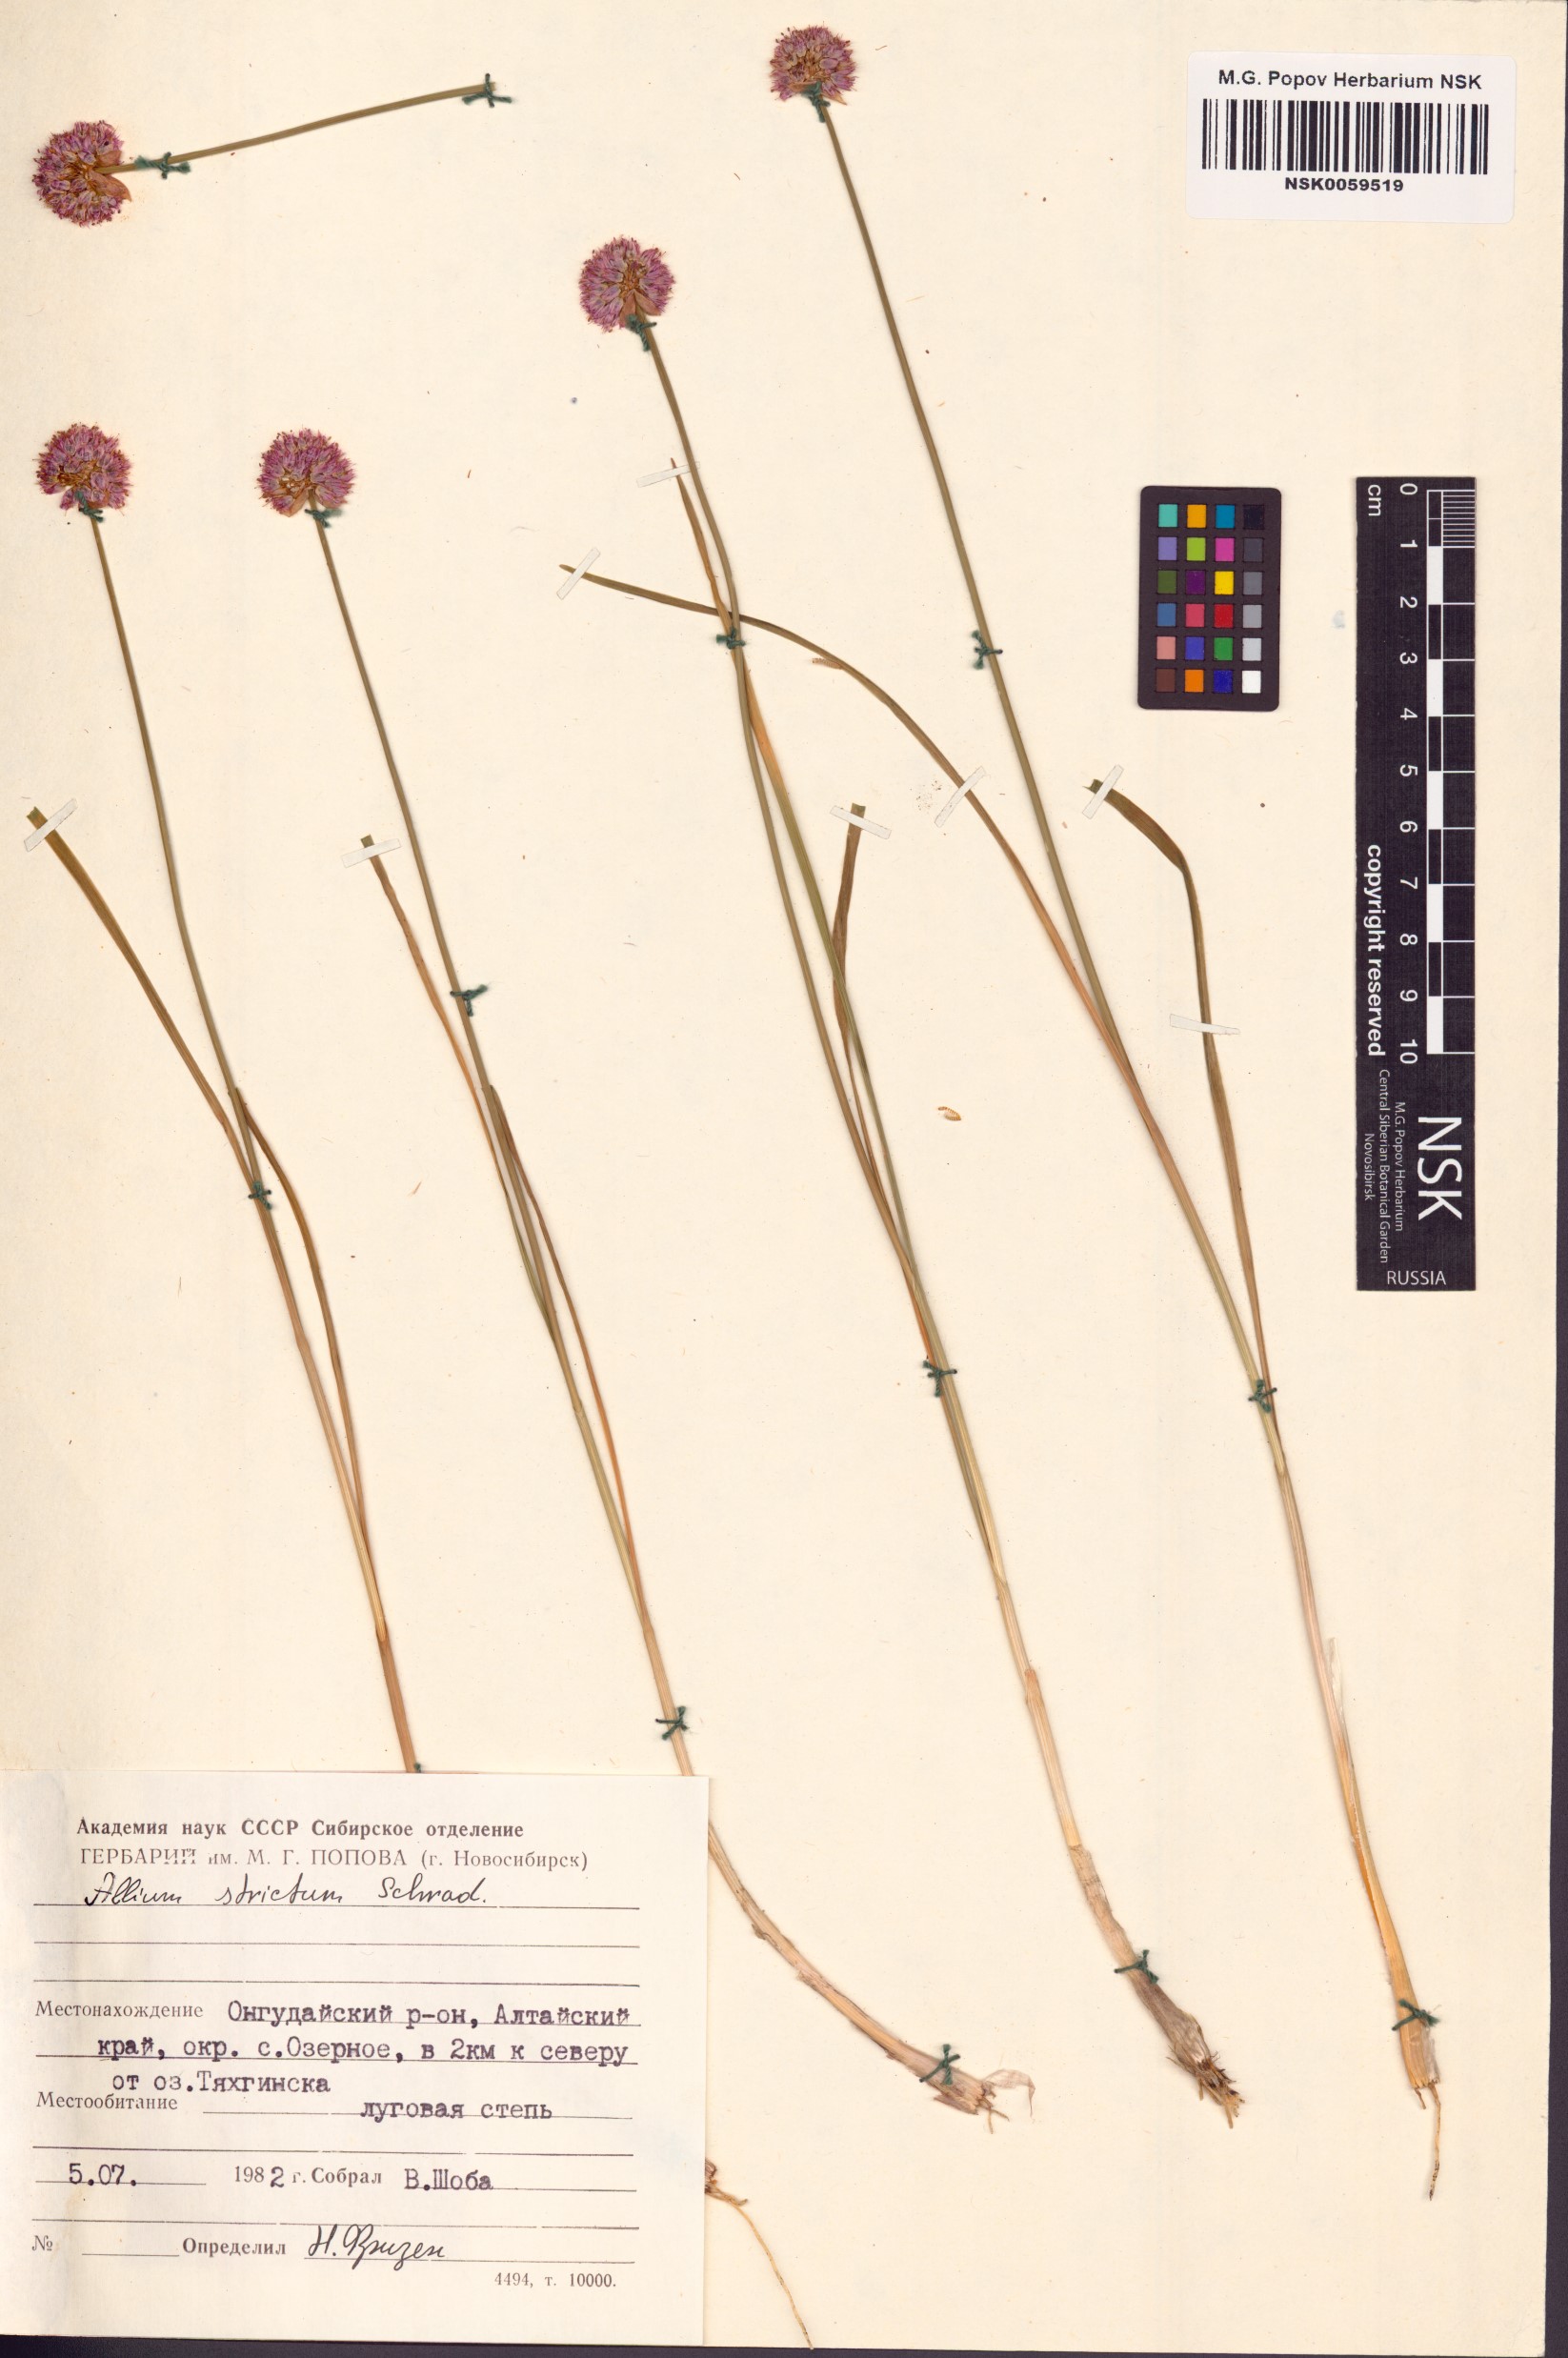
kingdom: Plantae
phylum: Tracheophyta
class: Liliopsida
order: Asparagales
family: Amaryllidaceae
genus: Allium
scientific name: Allium strictum
